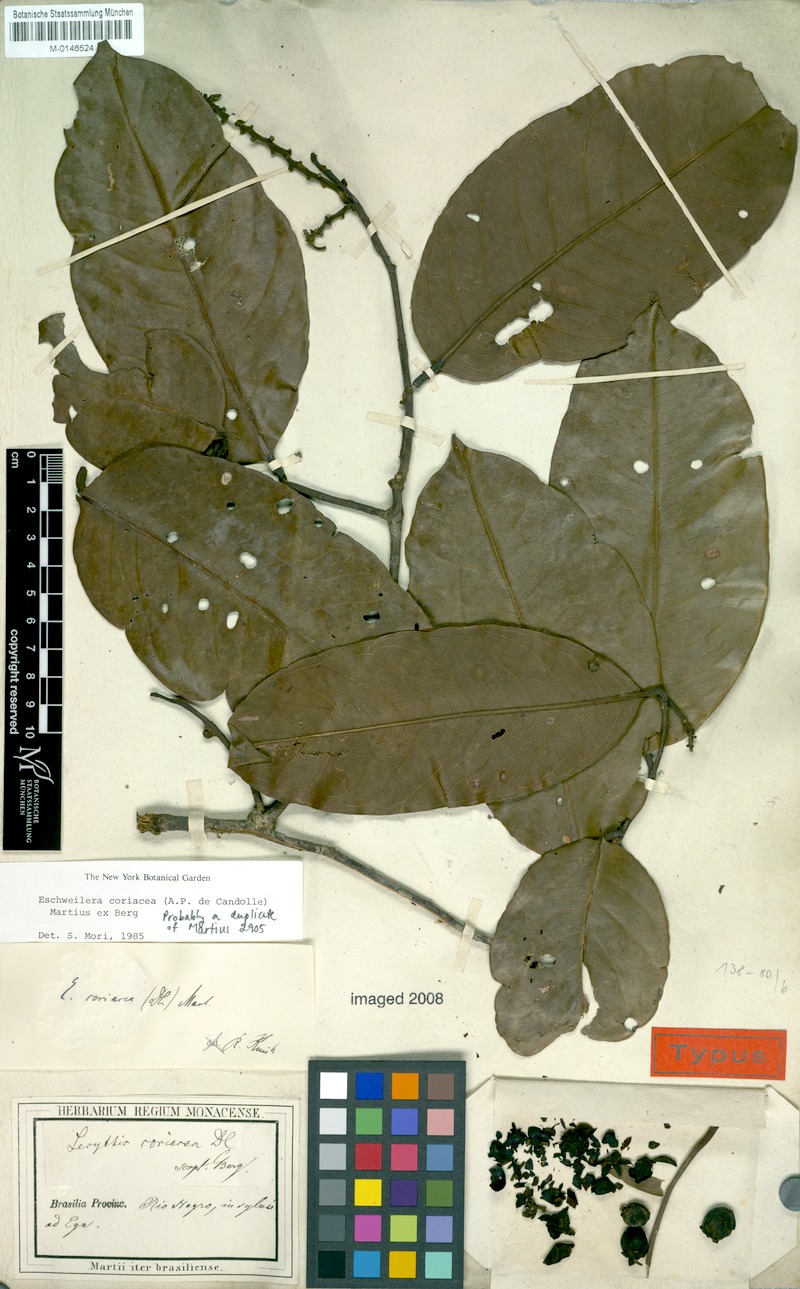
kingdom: Plantae
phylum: Tracheophyta
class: Magnoliopsida
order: Ericales
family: Lecythidaceae
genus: Eschweilera
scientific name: Eschweilera coriacea
